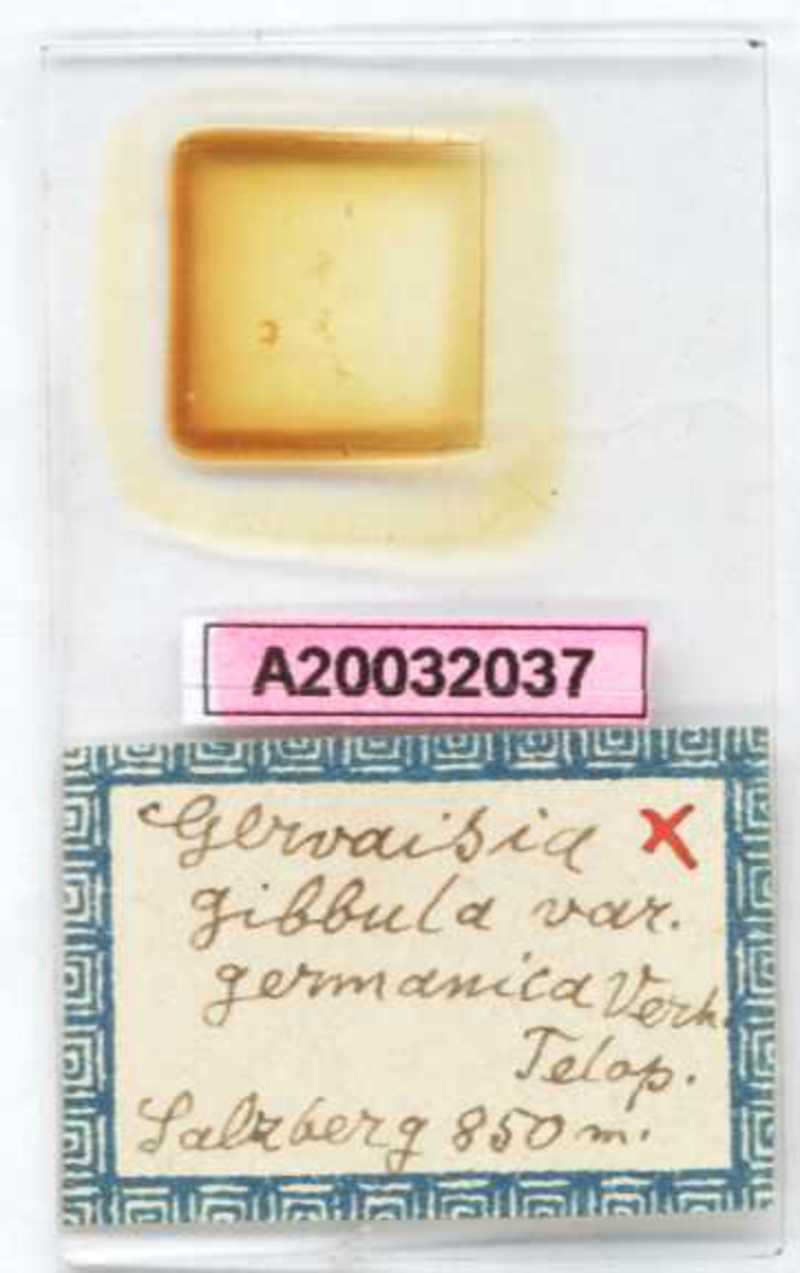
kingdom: Animalia
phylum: Arthropoda
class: Diplopoda
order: Glomerida
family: Glomeridae
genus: Trachysphaera
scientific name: Trachysphaera gibbula
